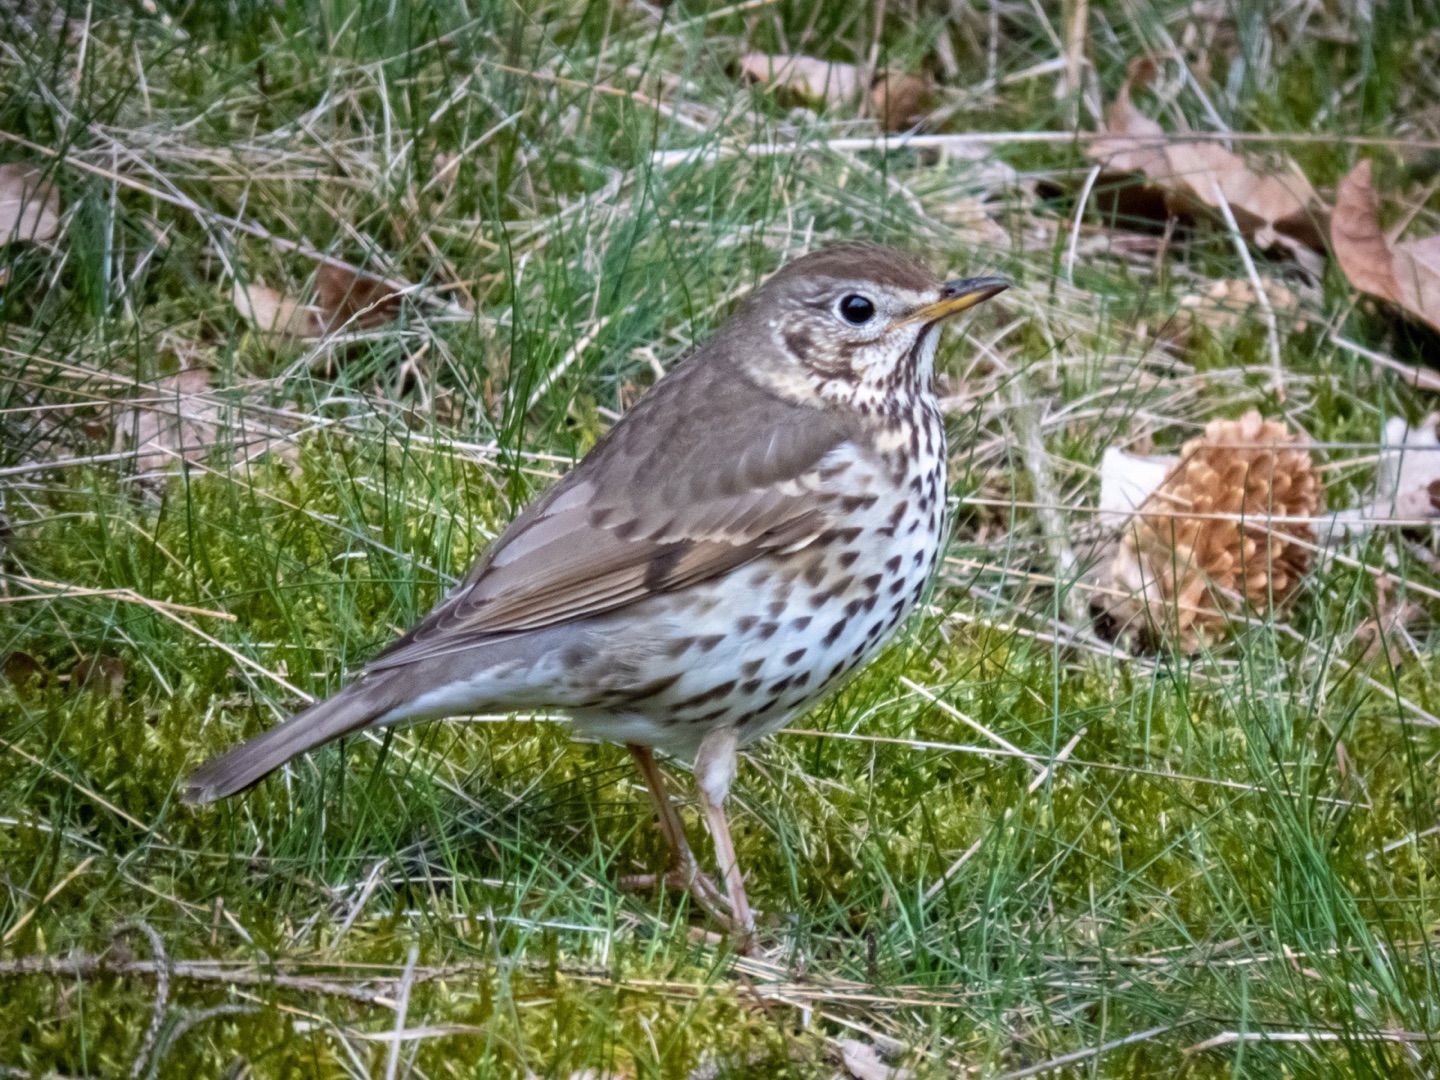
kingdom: Animalia
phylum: Chordata
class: Aves
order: Passeriformes
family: Turdidae
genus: Turdus
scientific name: Turdus philomelos
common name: Sangdrossel
